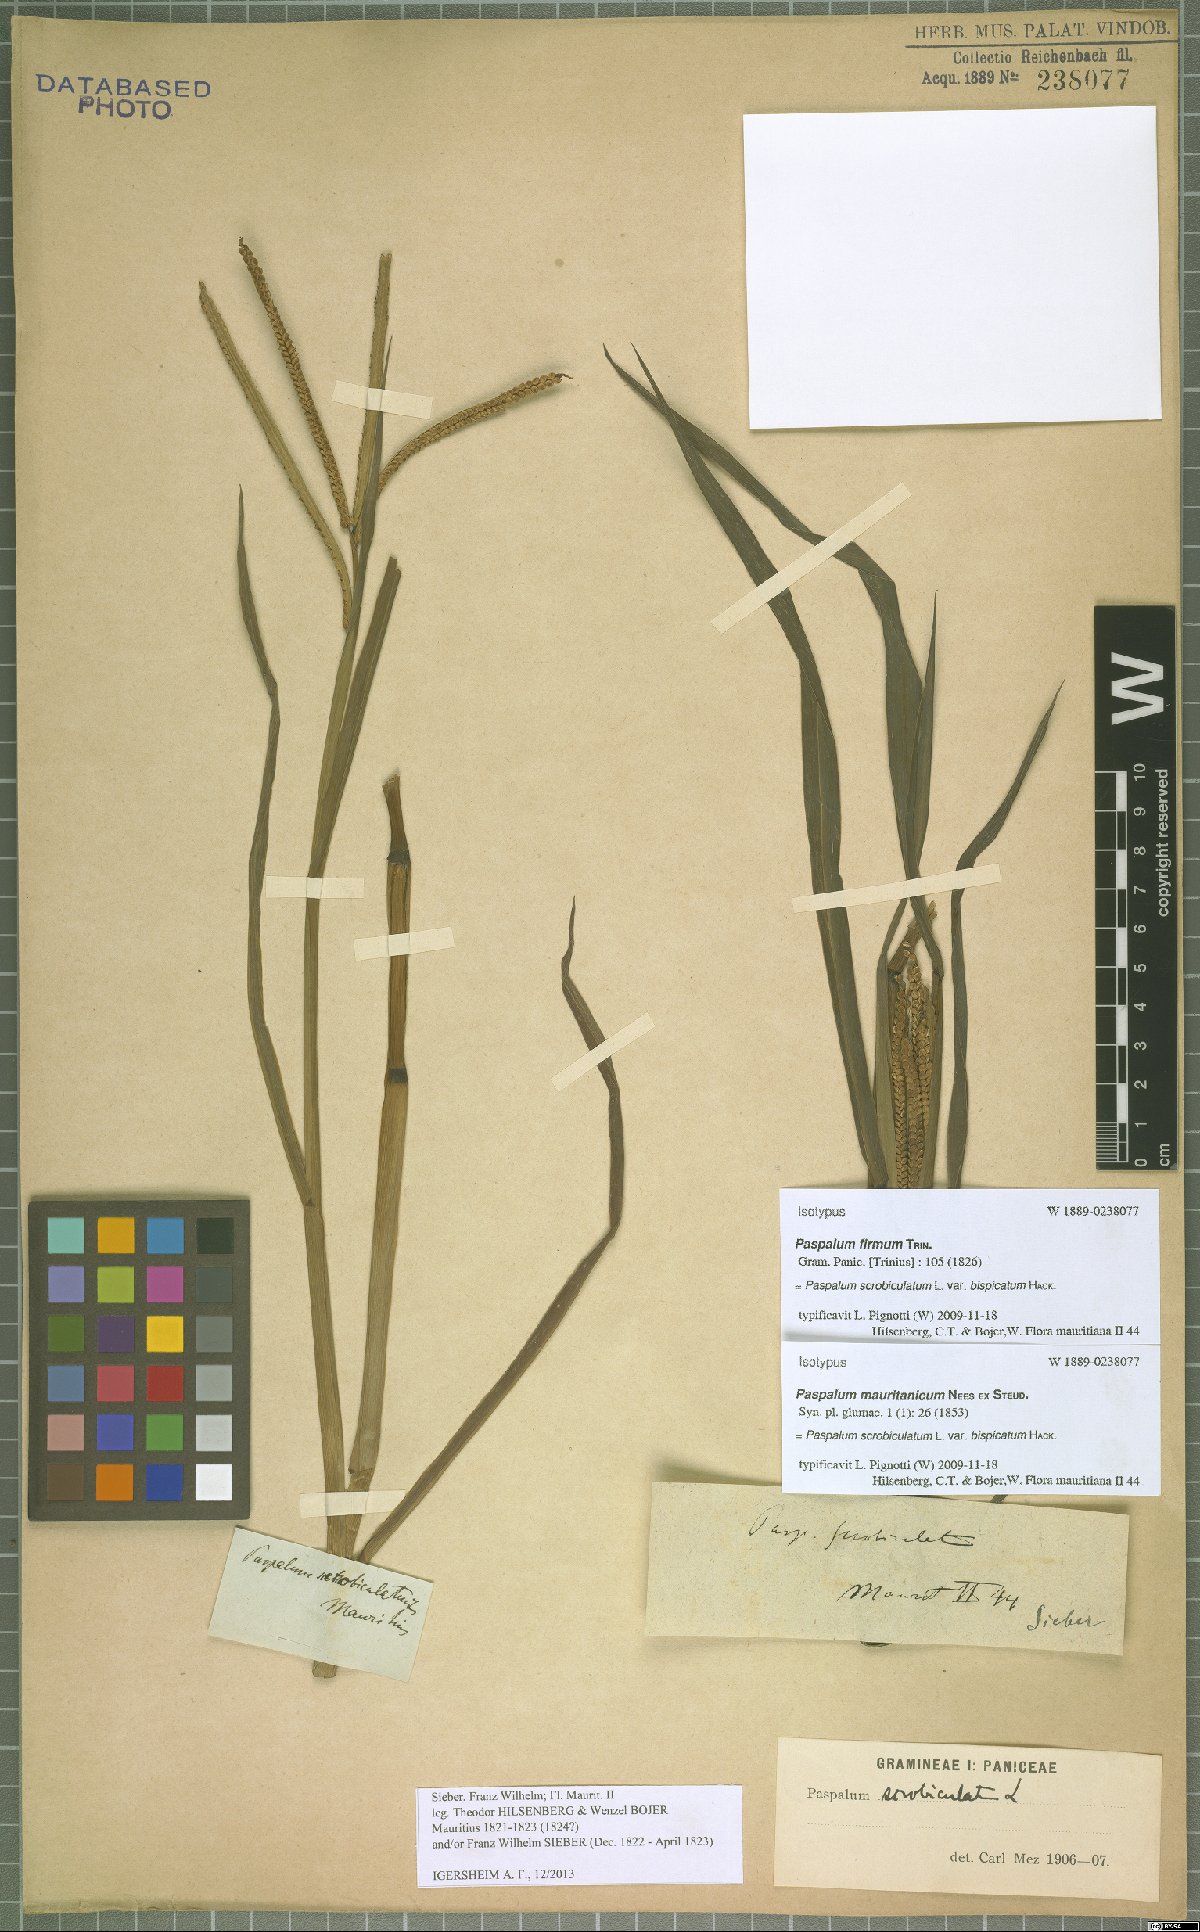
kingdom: Plantae
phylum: Tracheophyta
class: Liliopsida
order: Poales
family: Poaceae
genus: Paspalum
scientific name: Paspalum scrobiculatum
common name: Kodo millet
